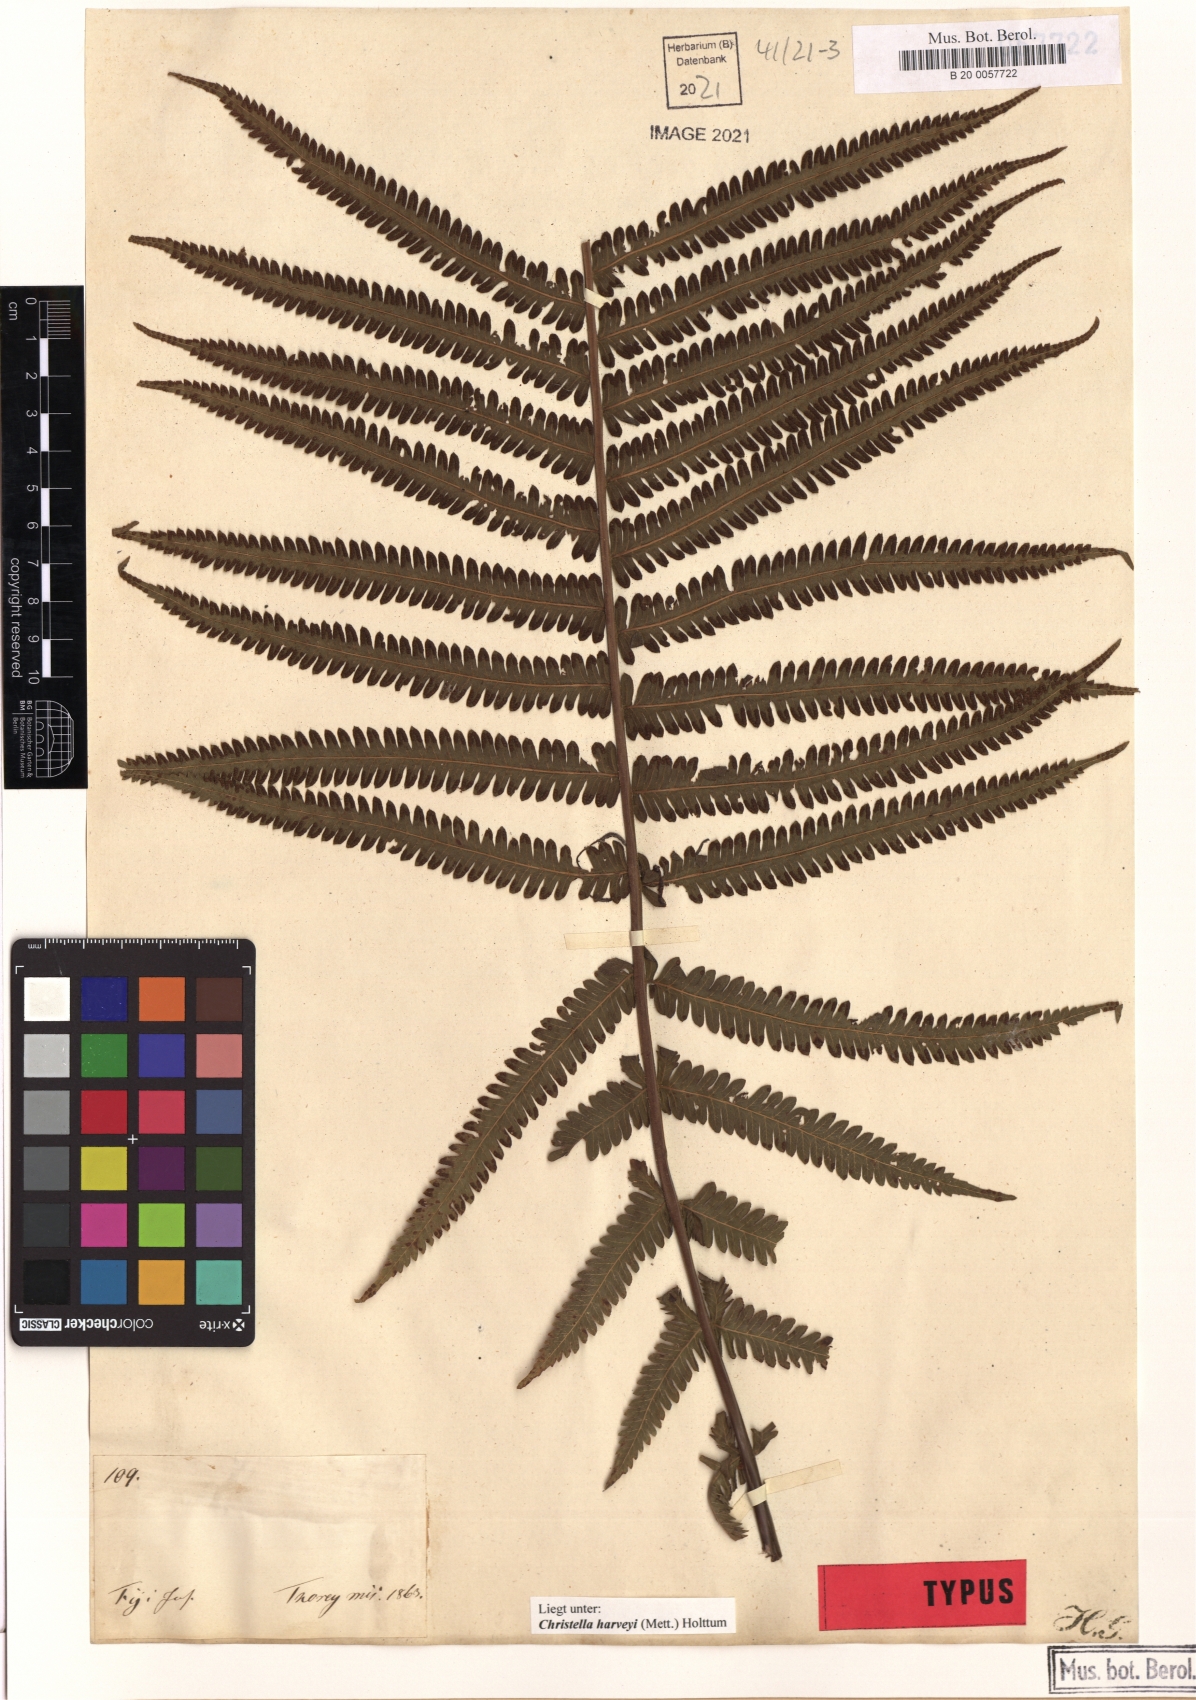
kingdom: Plantae
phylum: Tracheophyta
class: Polypodiopsida
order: Polypodiales
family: Thelypteridaceae
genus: Christella
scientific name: Christella harveyi
